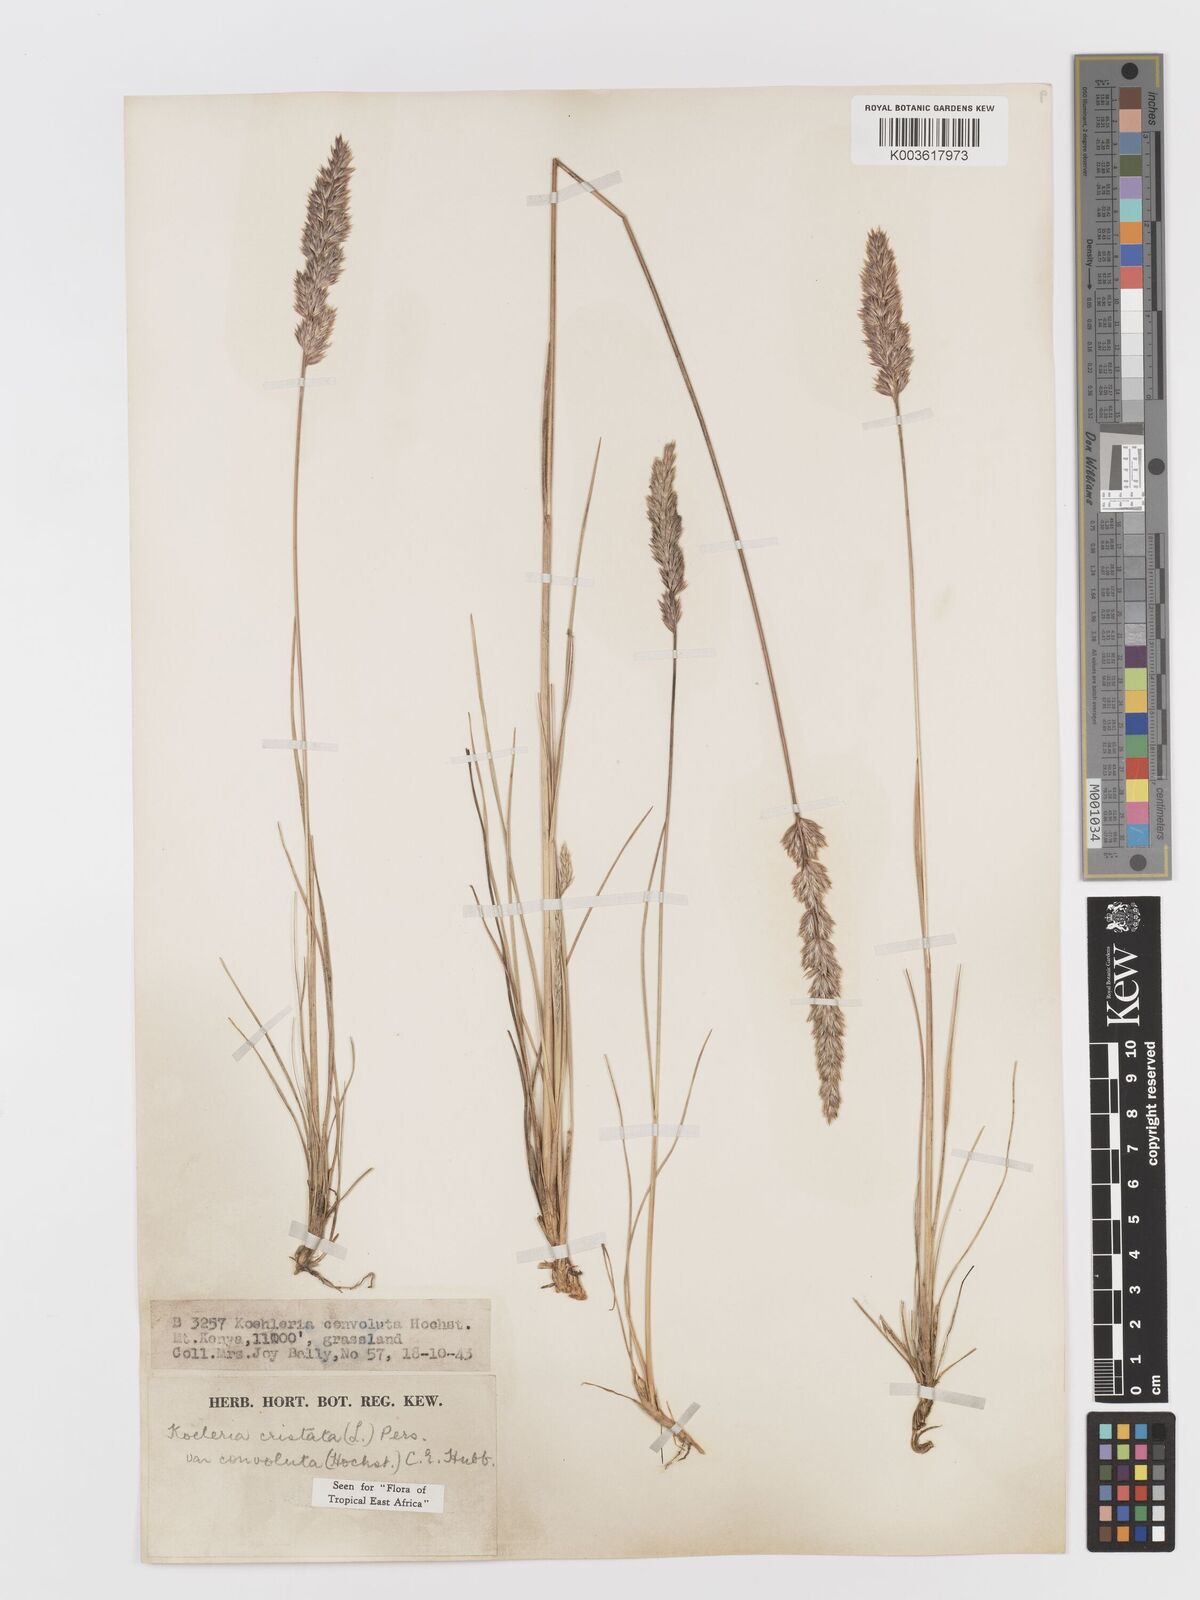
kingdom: Plantae
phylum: Tracheophyta
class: Liliopsida
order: Poales
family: Poaceae
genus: Koeleria
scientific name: Koeleria capensis
